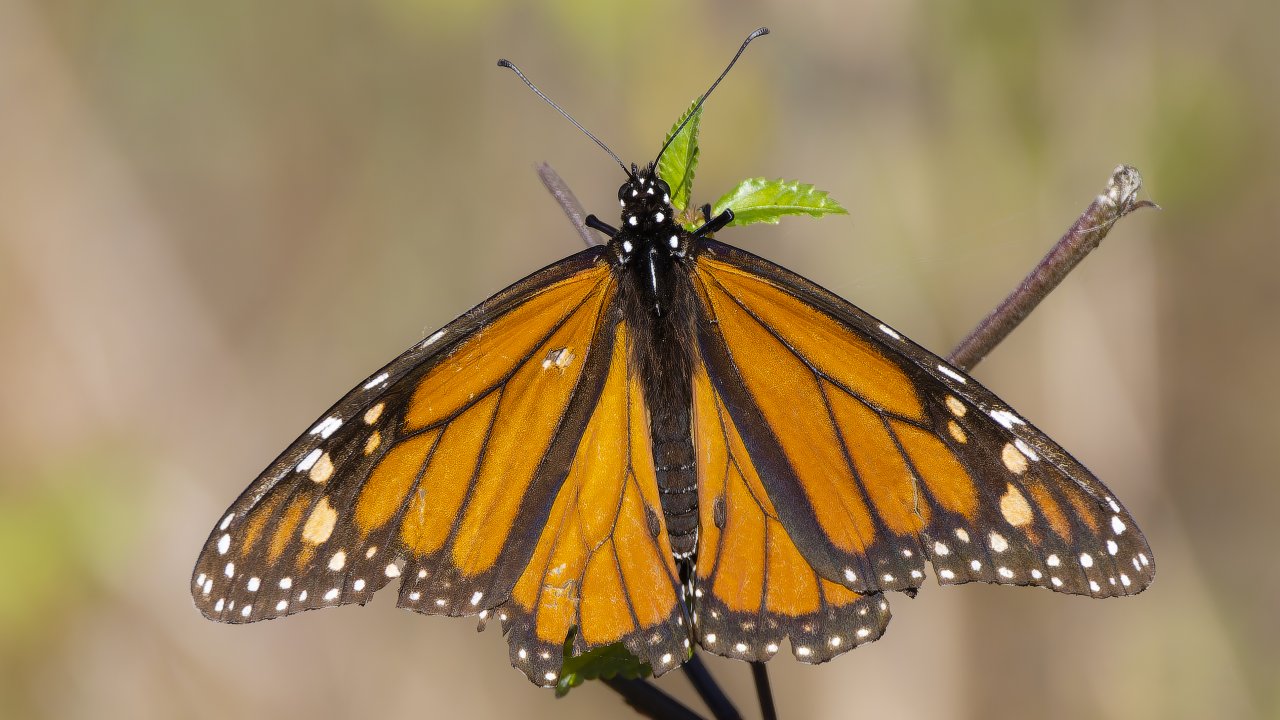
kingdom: Animalia
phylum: Arthropoda
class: Insecta
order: Lepidoptera
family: Nymphalidae
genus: Danaus
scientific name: Danaus plexippus
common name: Monarch
